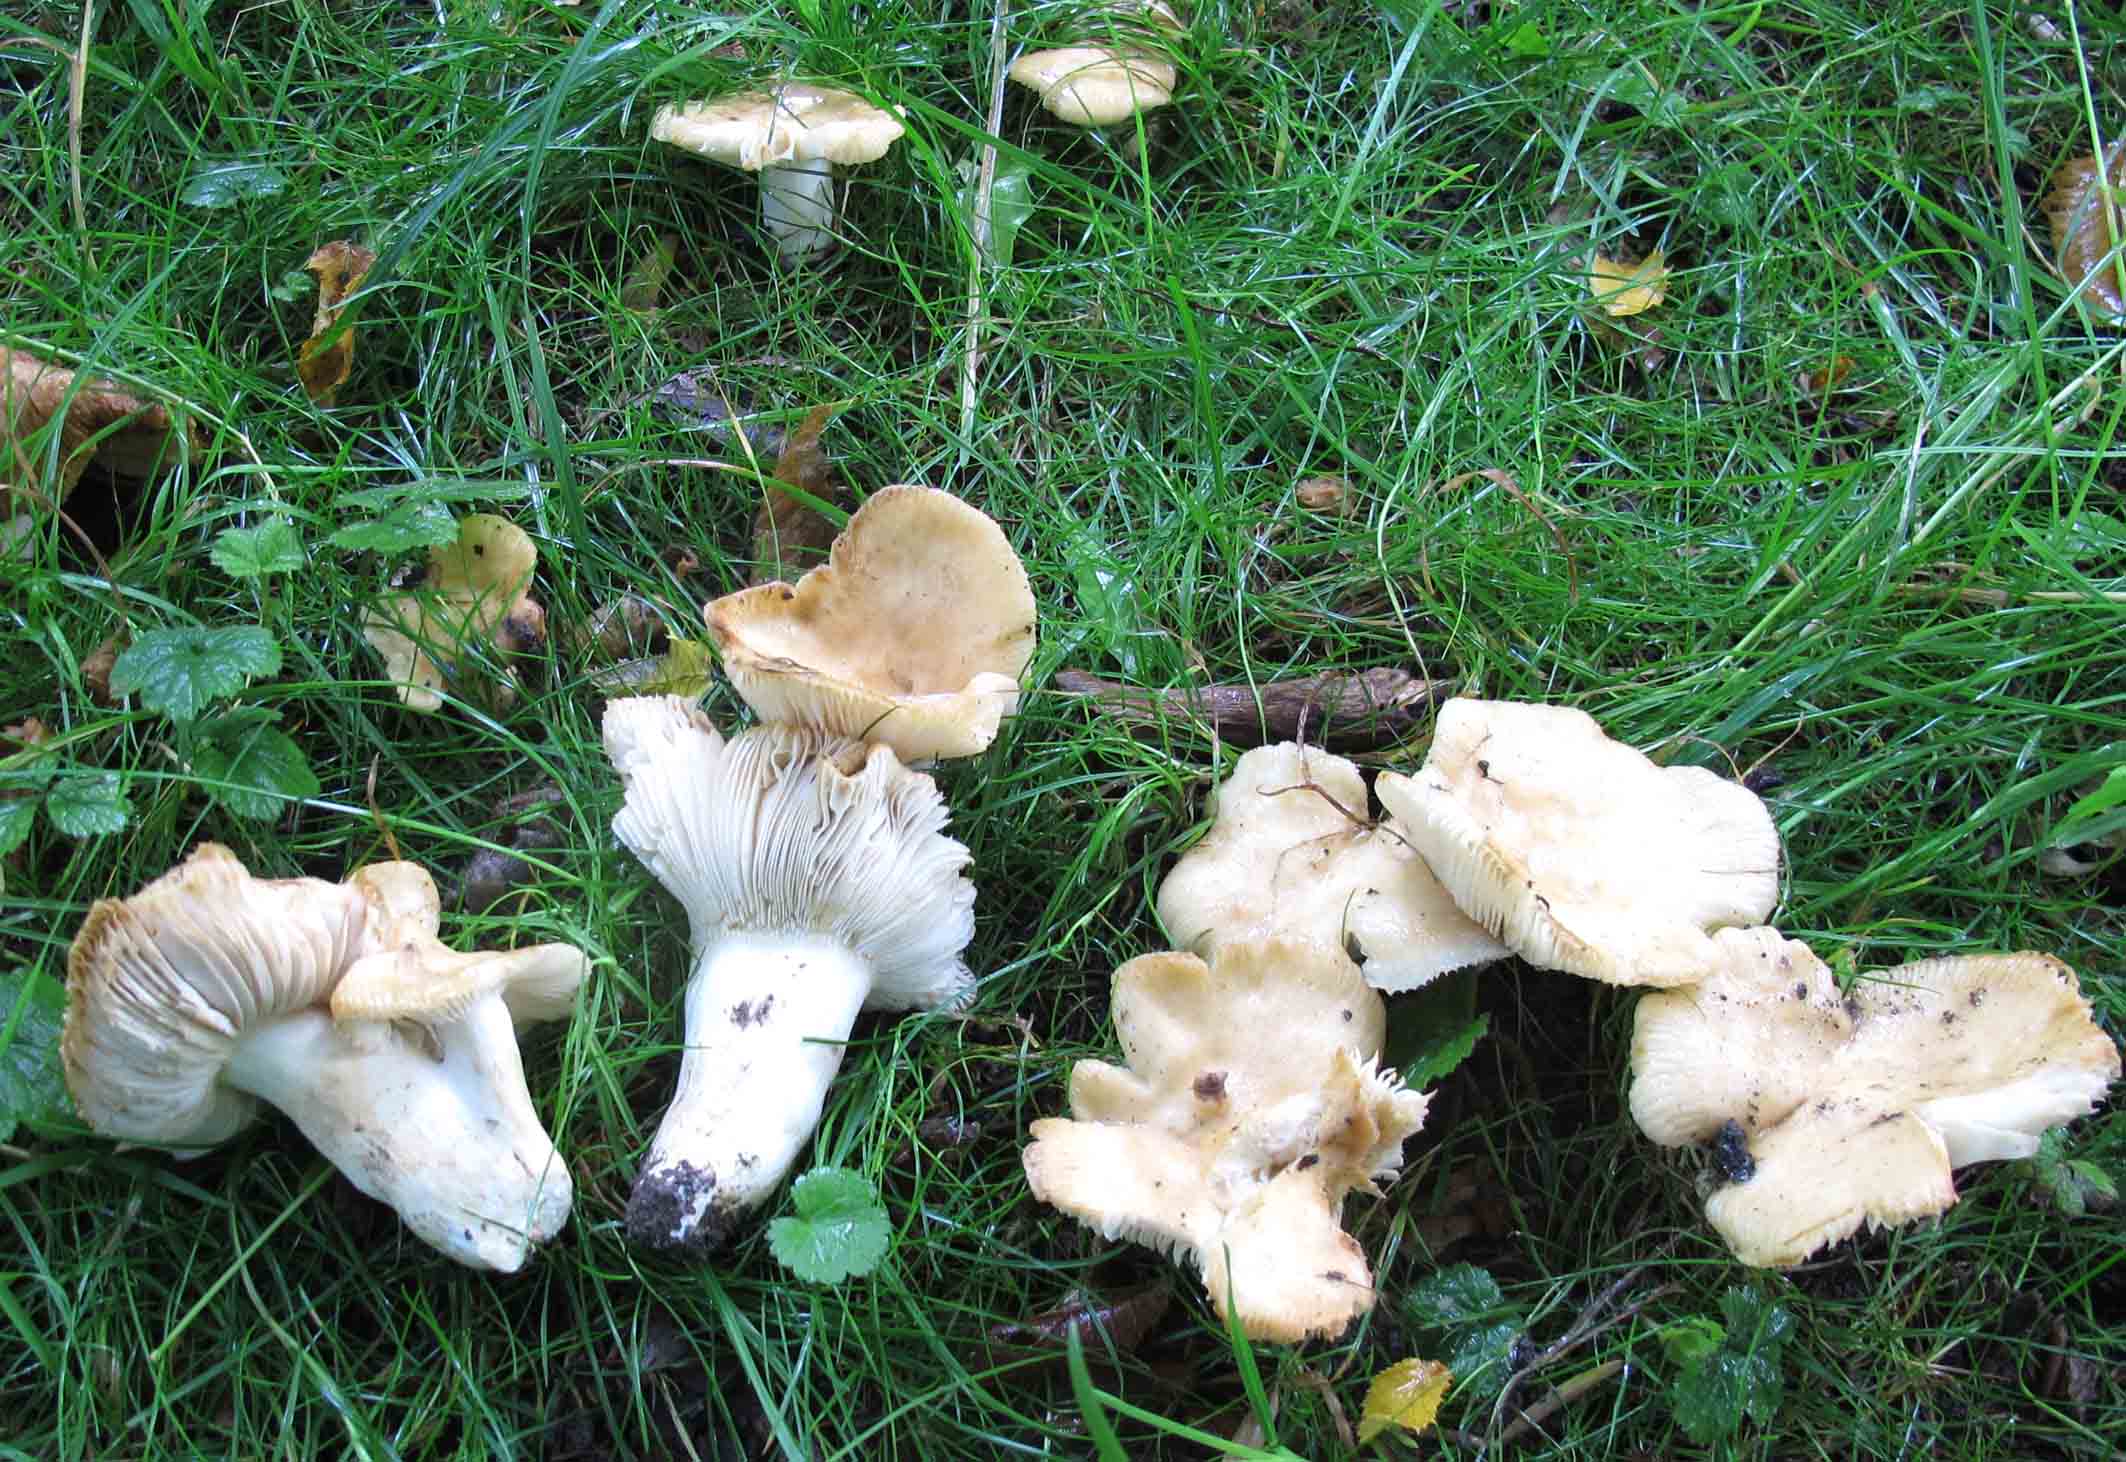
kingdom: Fungi
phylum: Basidiomycota
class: Agaricomycetes
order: Russulales
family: Russulaceae
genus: Russula
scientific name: Russula farinipes
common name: gul kam-skørhat
